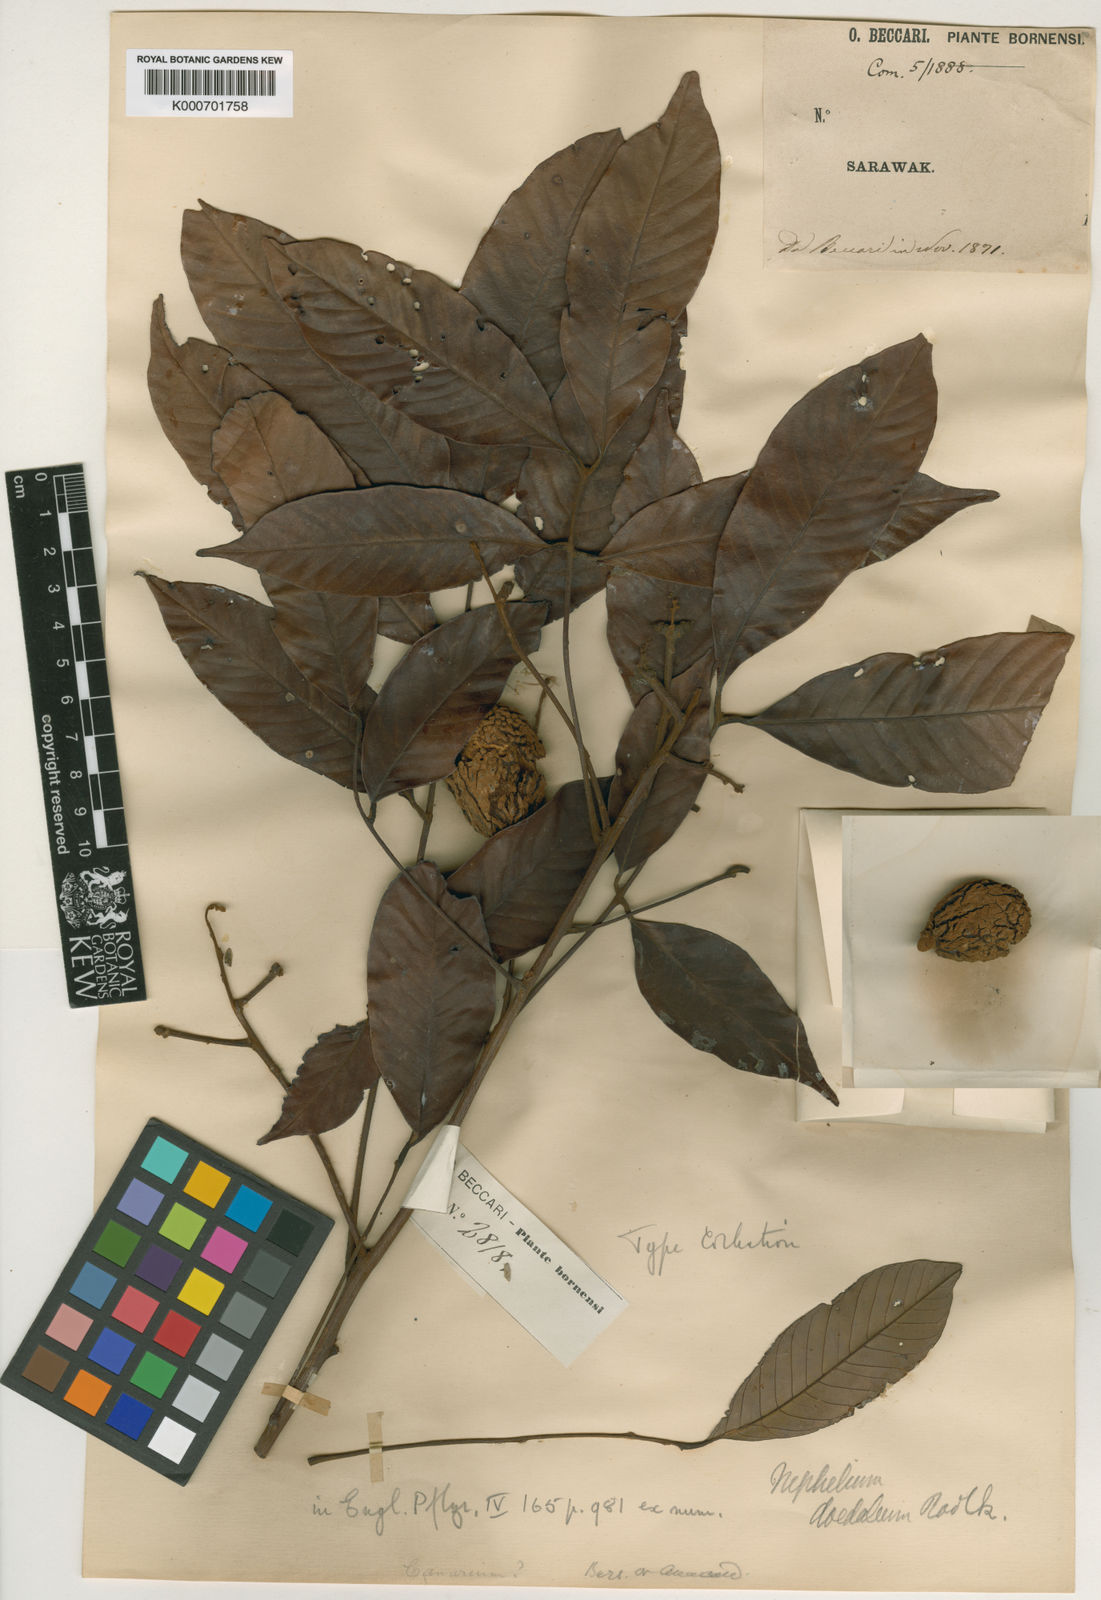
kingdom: Plantae
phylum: Tracheophyta
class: Magnoliopsida
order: Sapindales
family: Sapindaceae
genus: Nephelium
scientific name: Nephelium daedaleum
